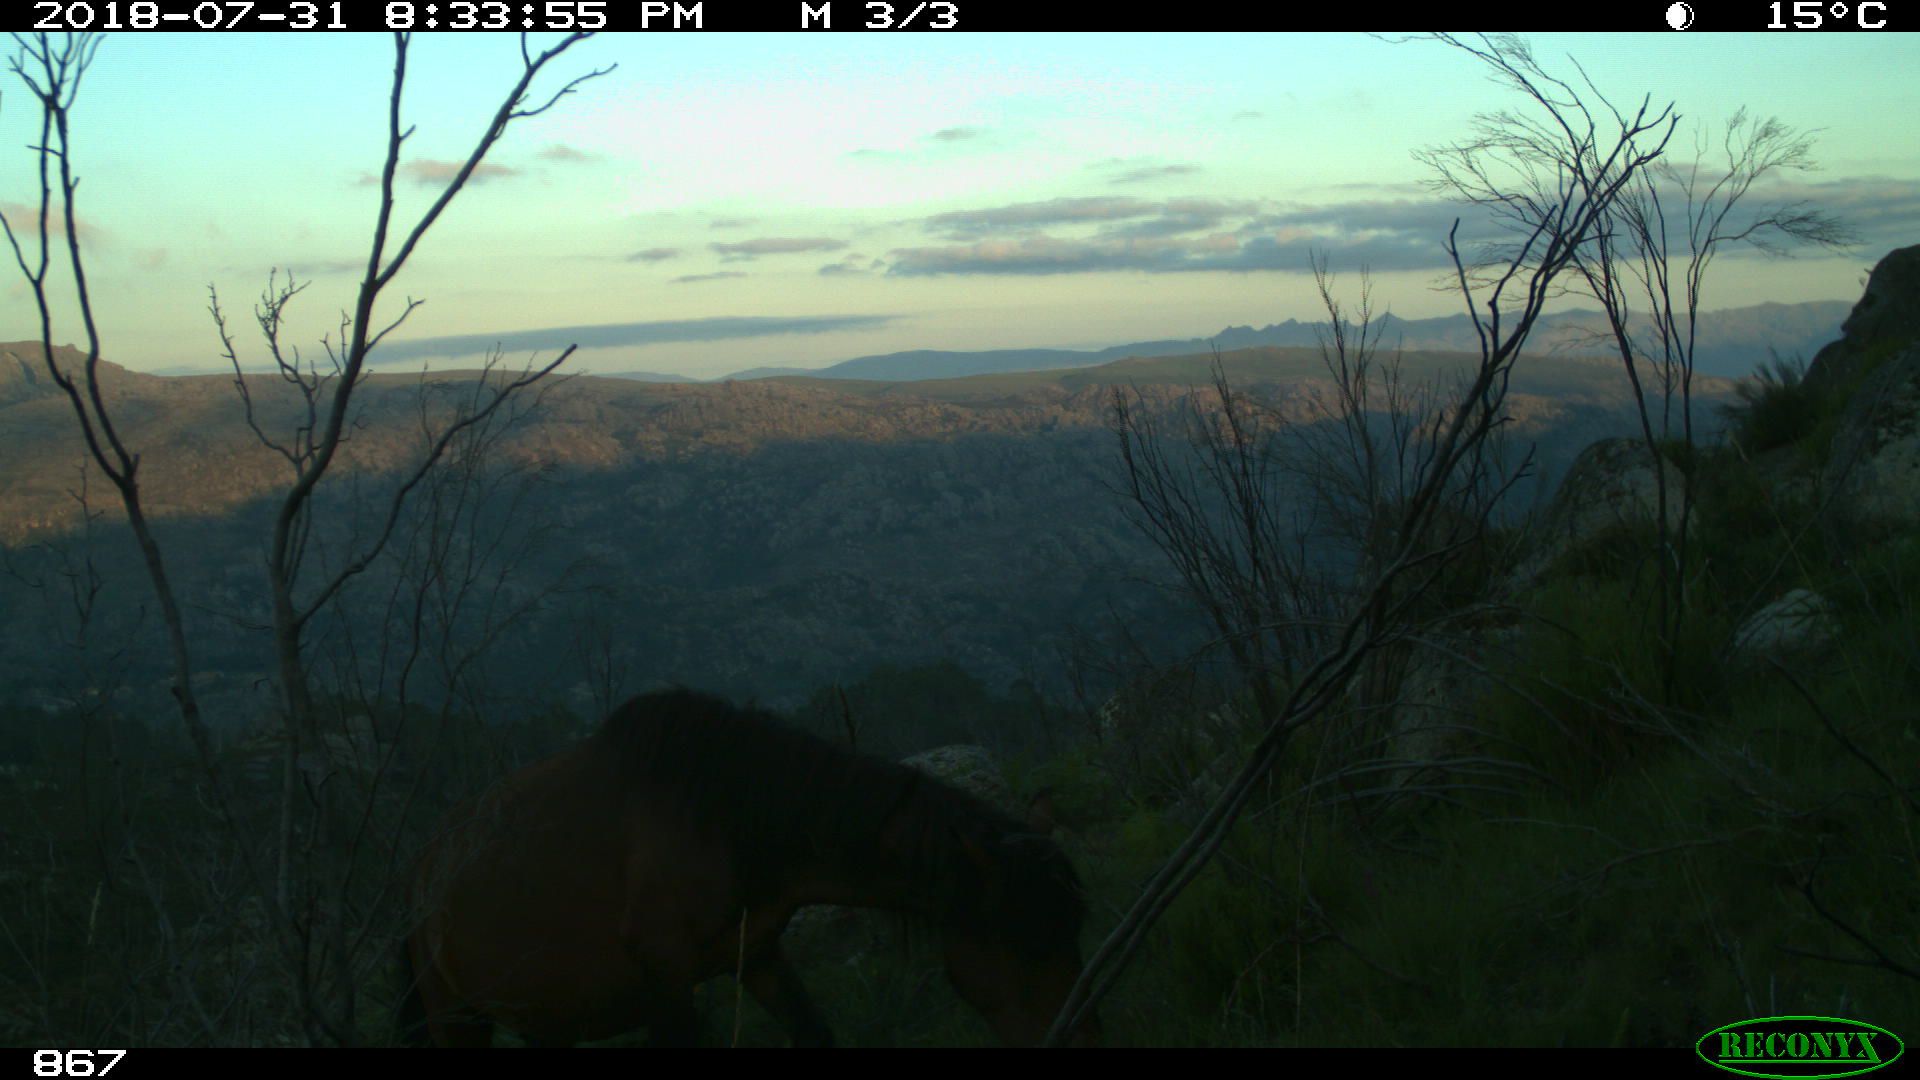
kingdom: Animalia
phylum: Chordata
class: Mammalia
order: Perissodactyla
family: Equidae
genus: Equus
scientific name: Equus caballus
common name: Horse
